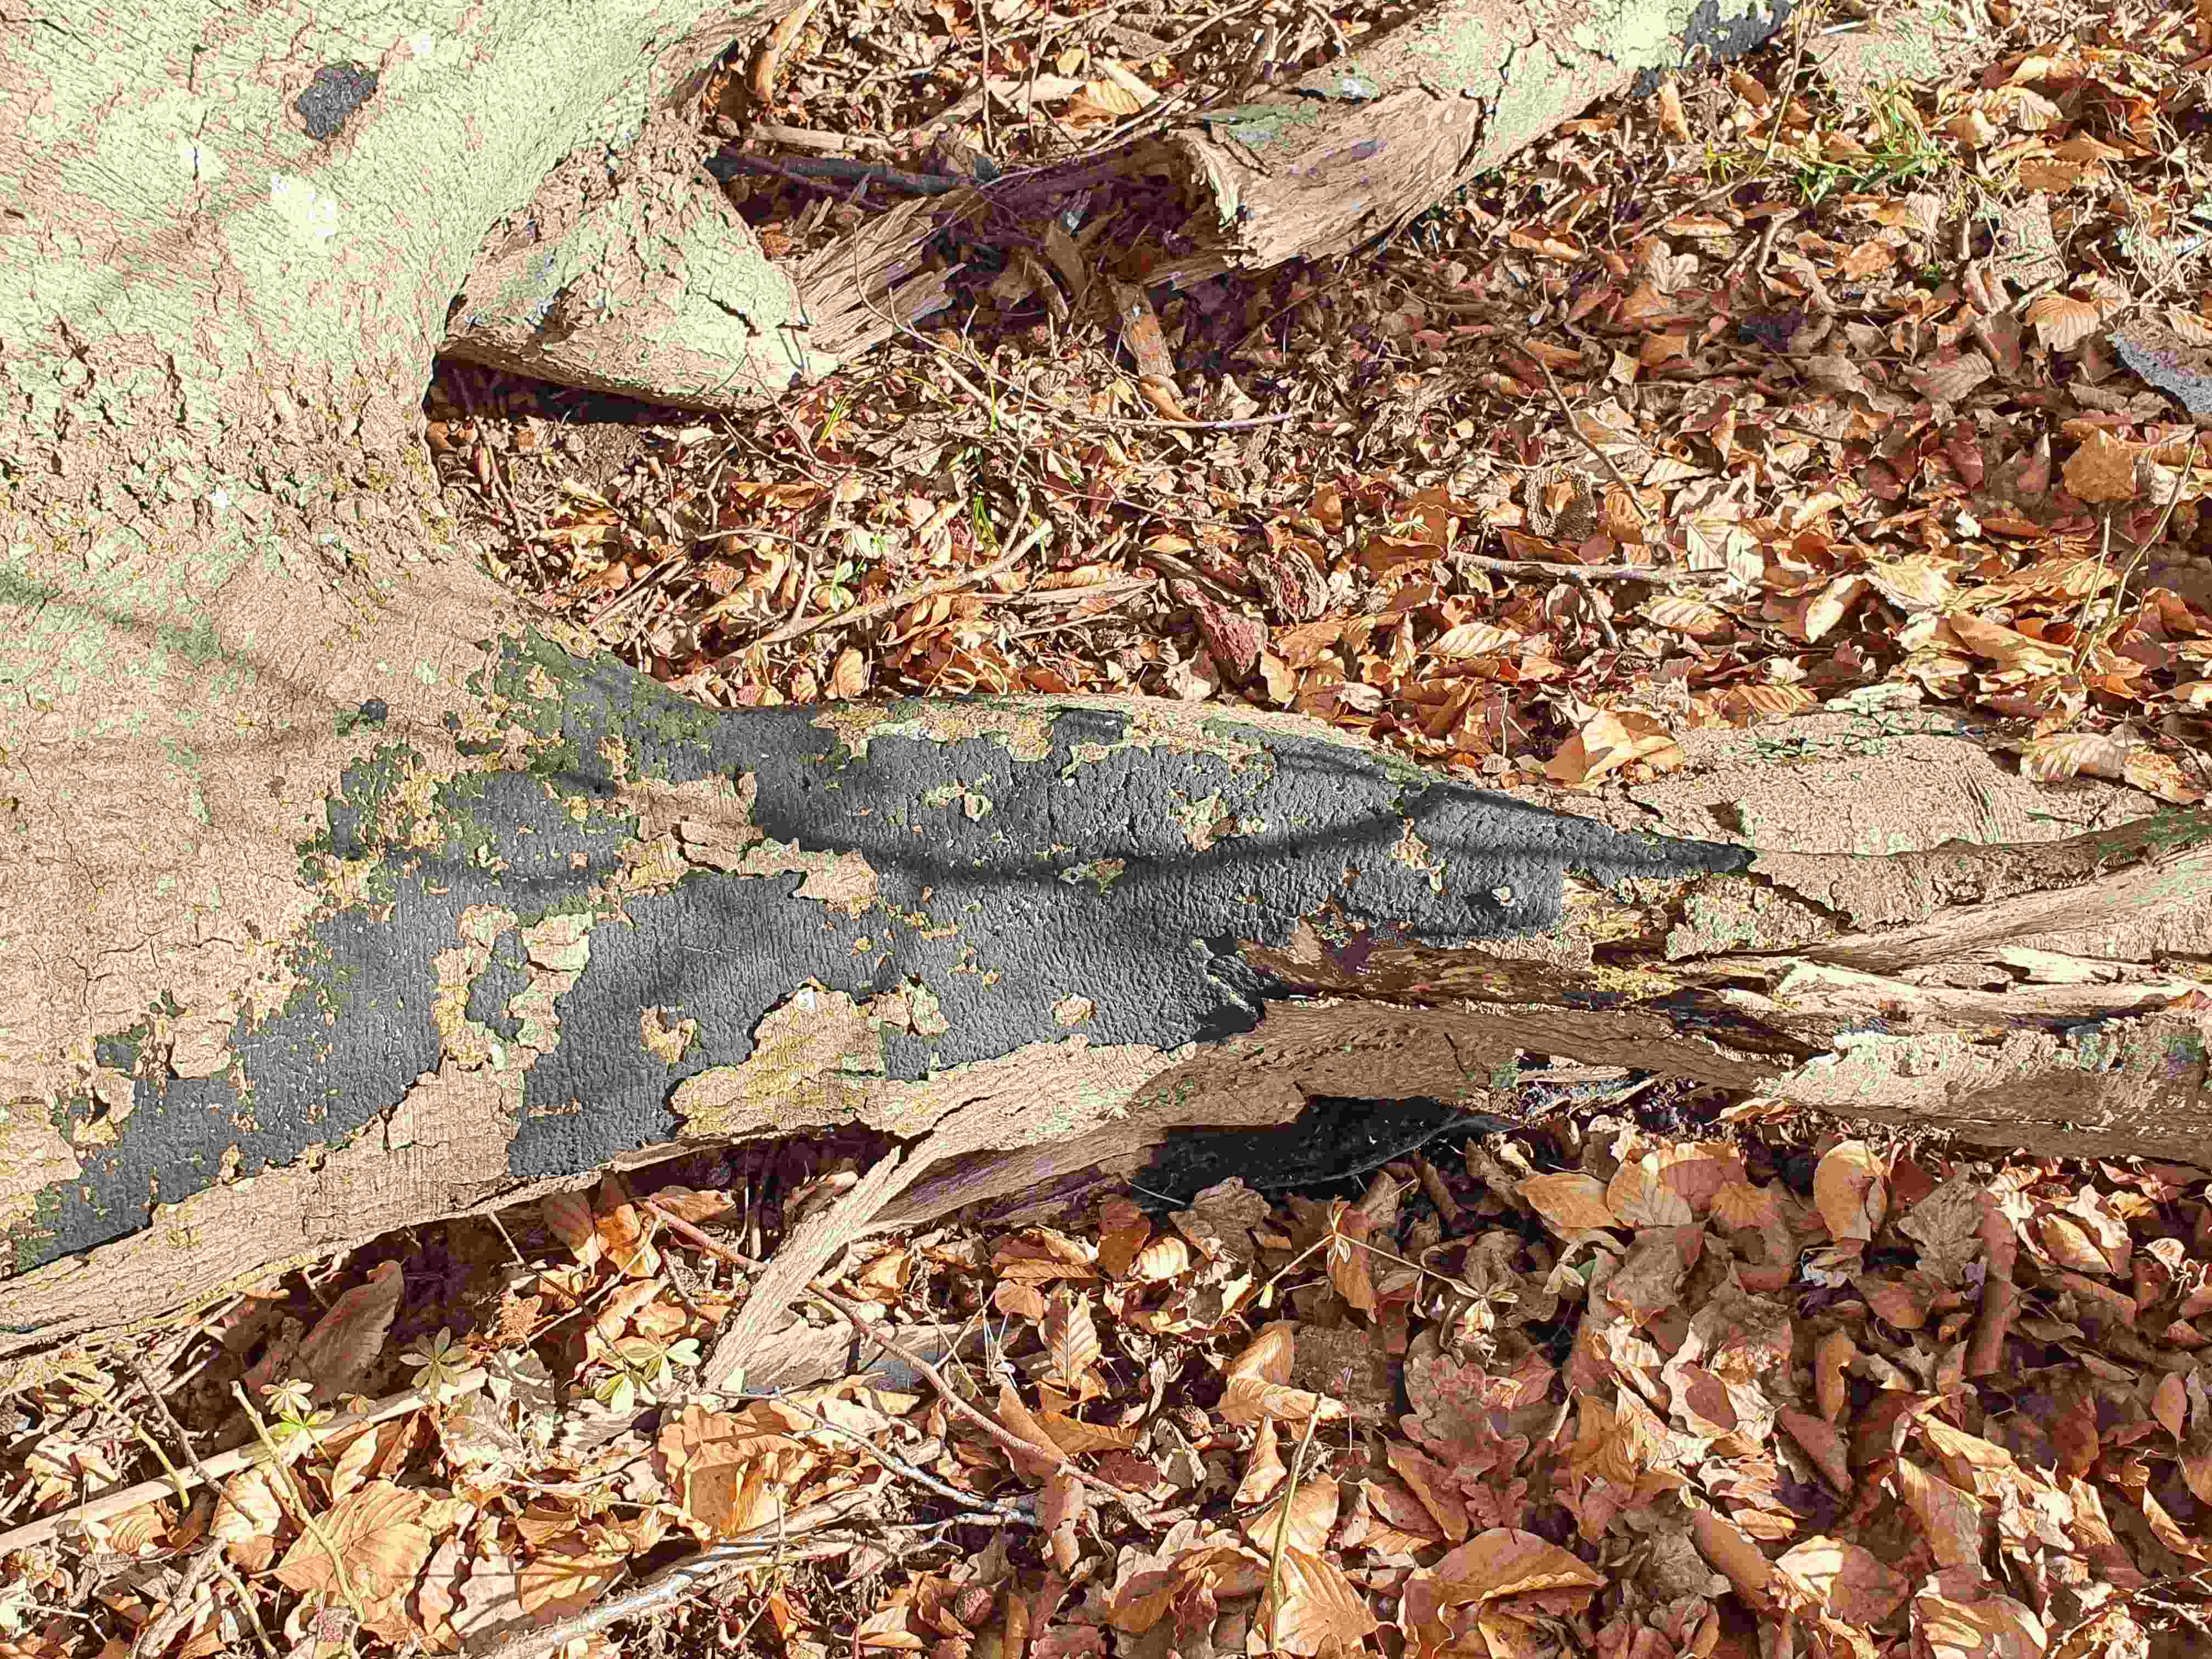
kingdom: Fungi
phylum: Ascomycota
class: Sordariomycetes
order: Xylariales
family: Diatrypaceae
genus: Eutypa
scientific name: Eutypa spinosa
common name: grov kulskorpe
